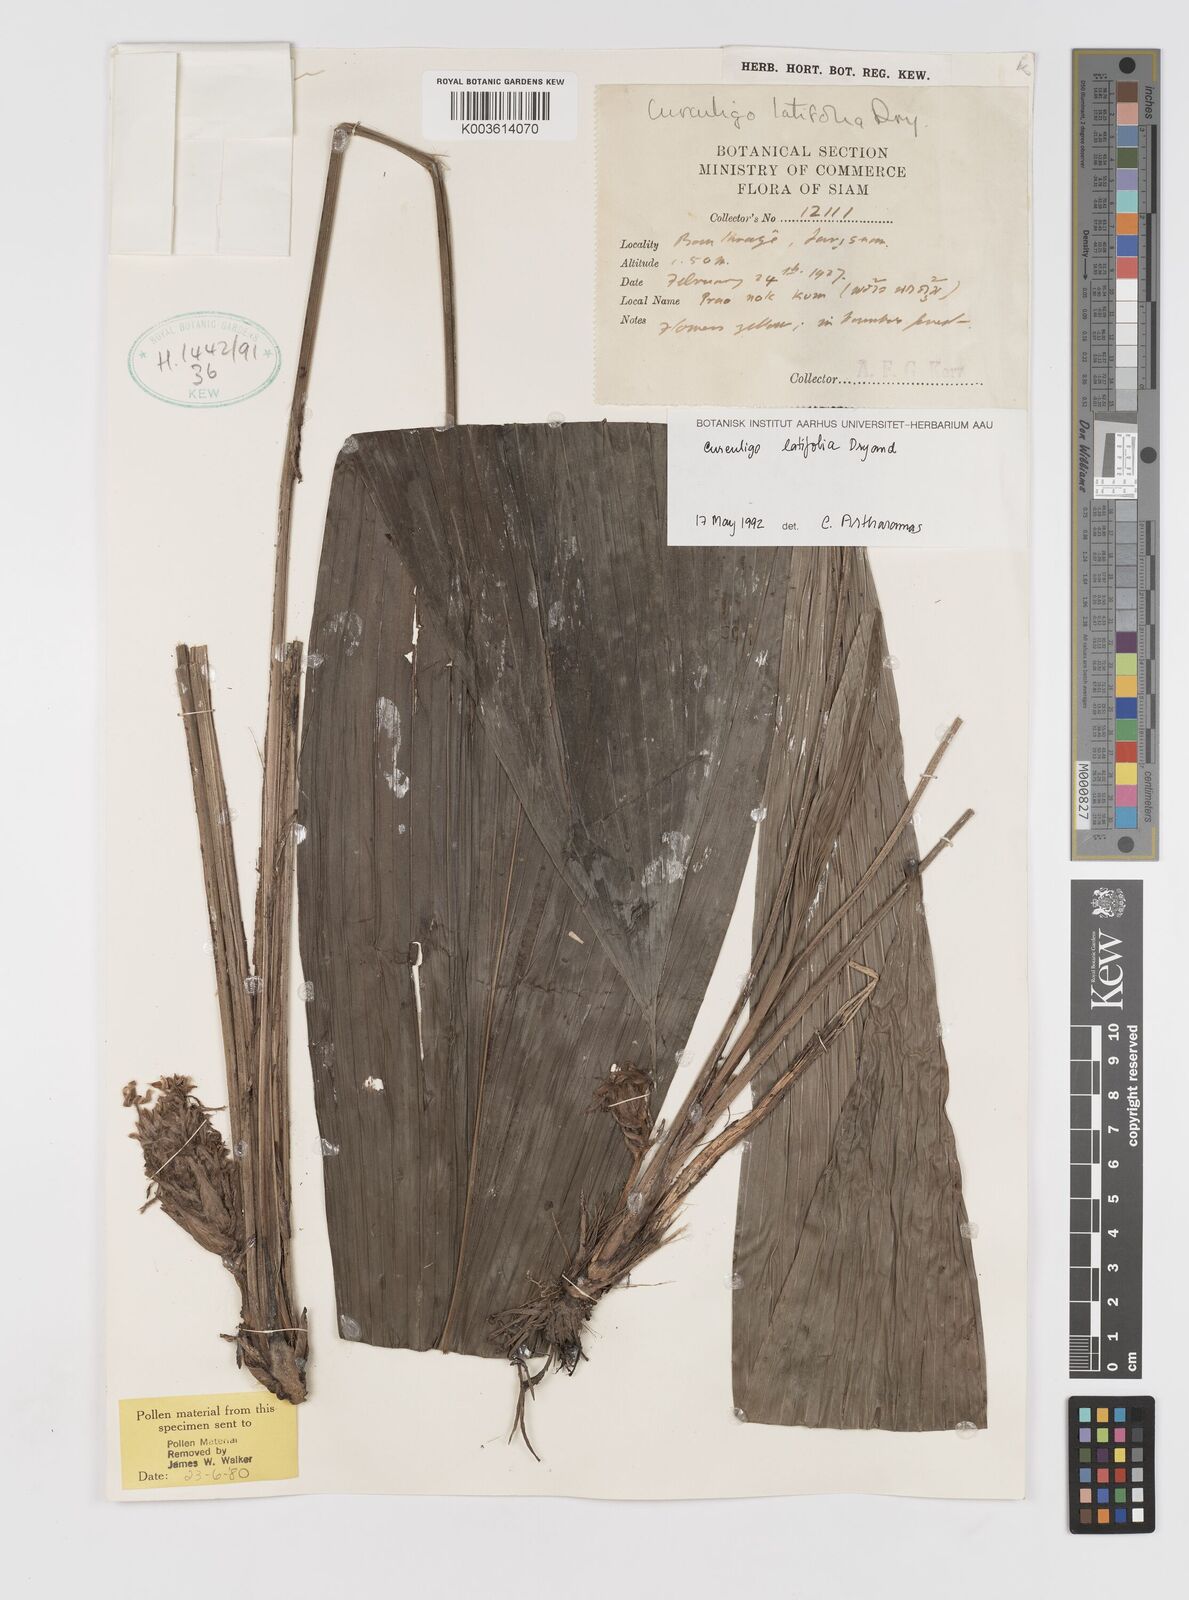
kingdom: Plantae
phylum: Tracheophyta
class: Liliopsida
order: Asparagales
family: Hypoxidaceae
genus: Curculigo
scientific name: Curculigo latifolia
